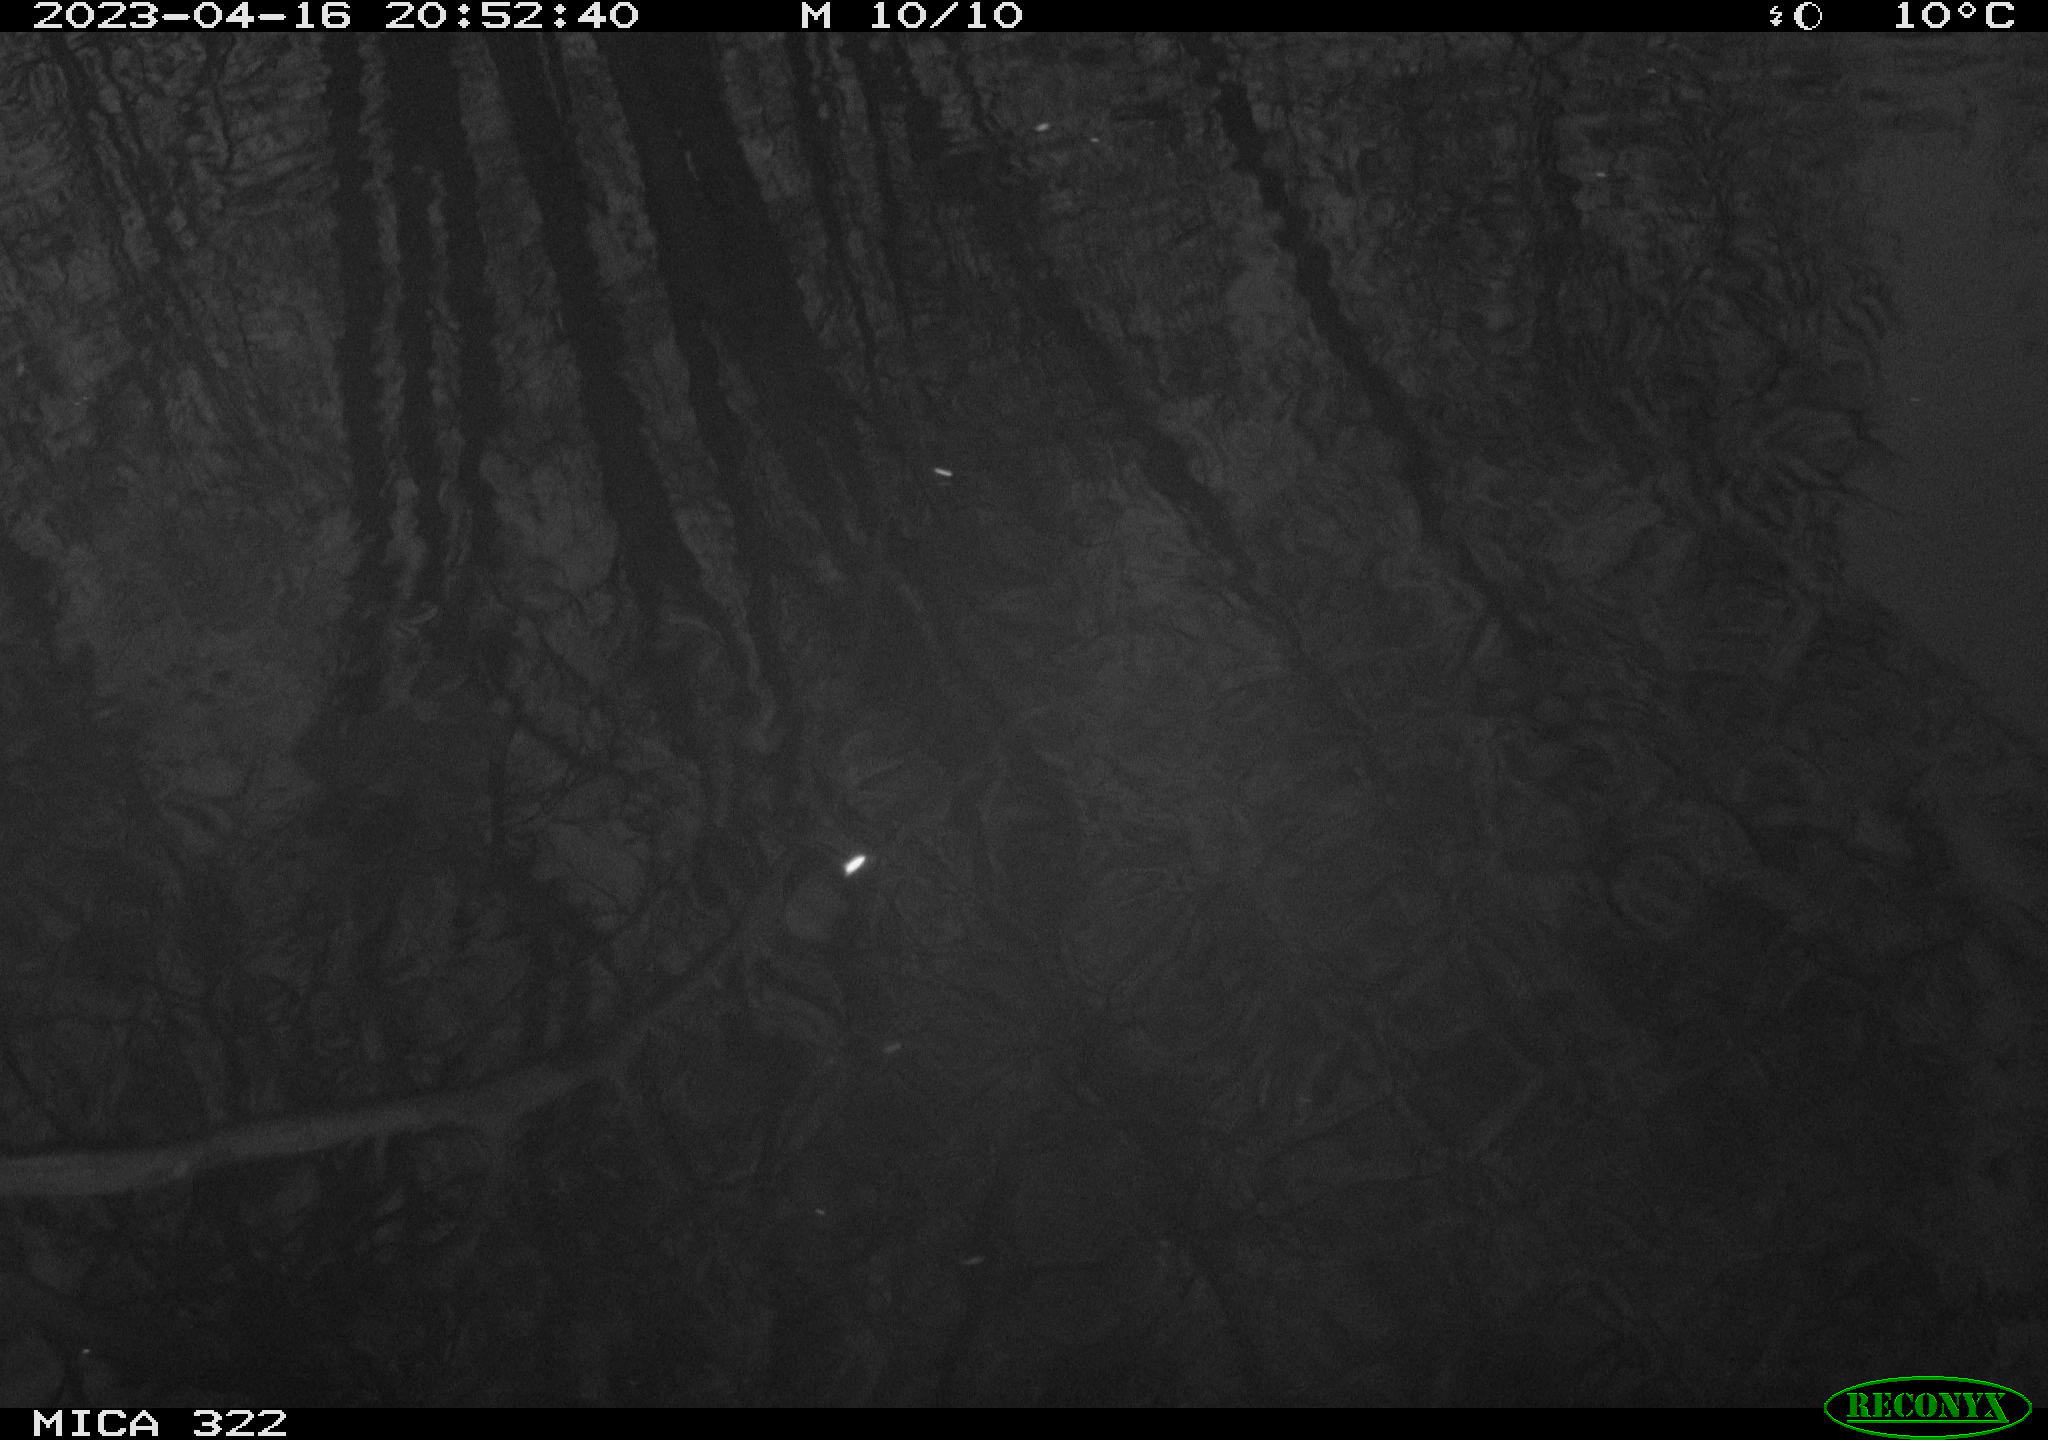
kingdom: Animalia
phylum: Chordata
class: Aves
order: Gruiformes
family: Rallidae
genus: Gallinula
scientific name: Gallinula chloropus
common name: Common moorhen
